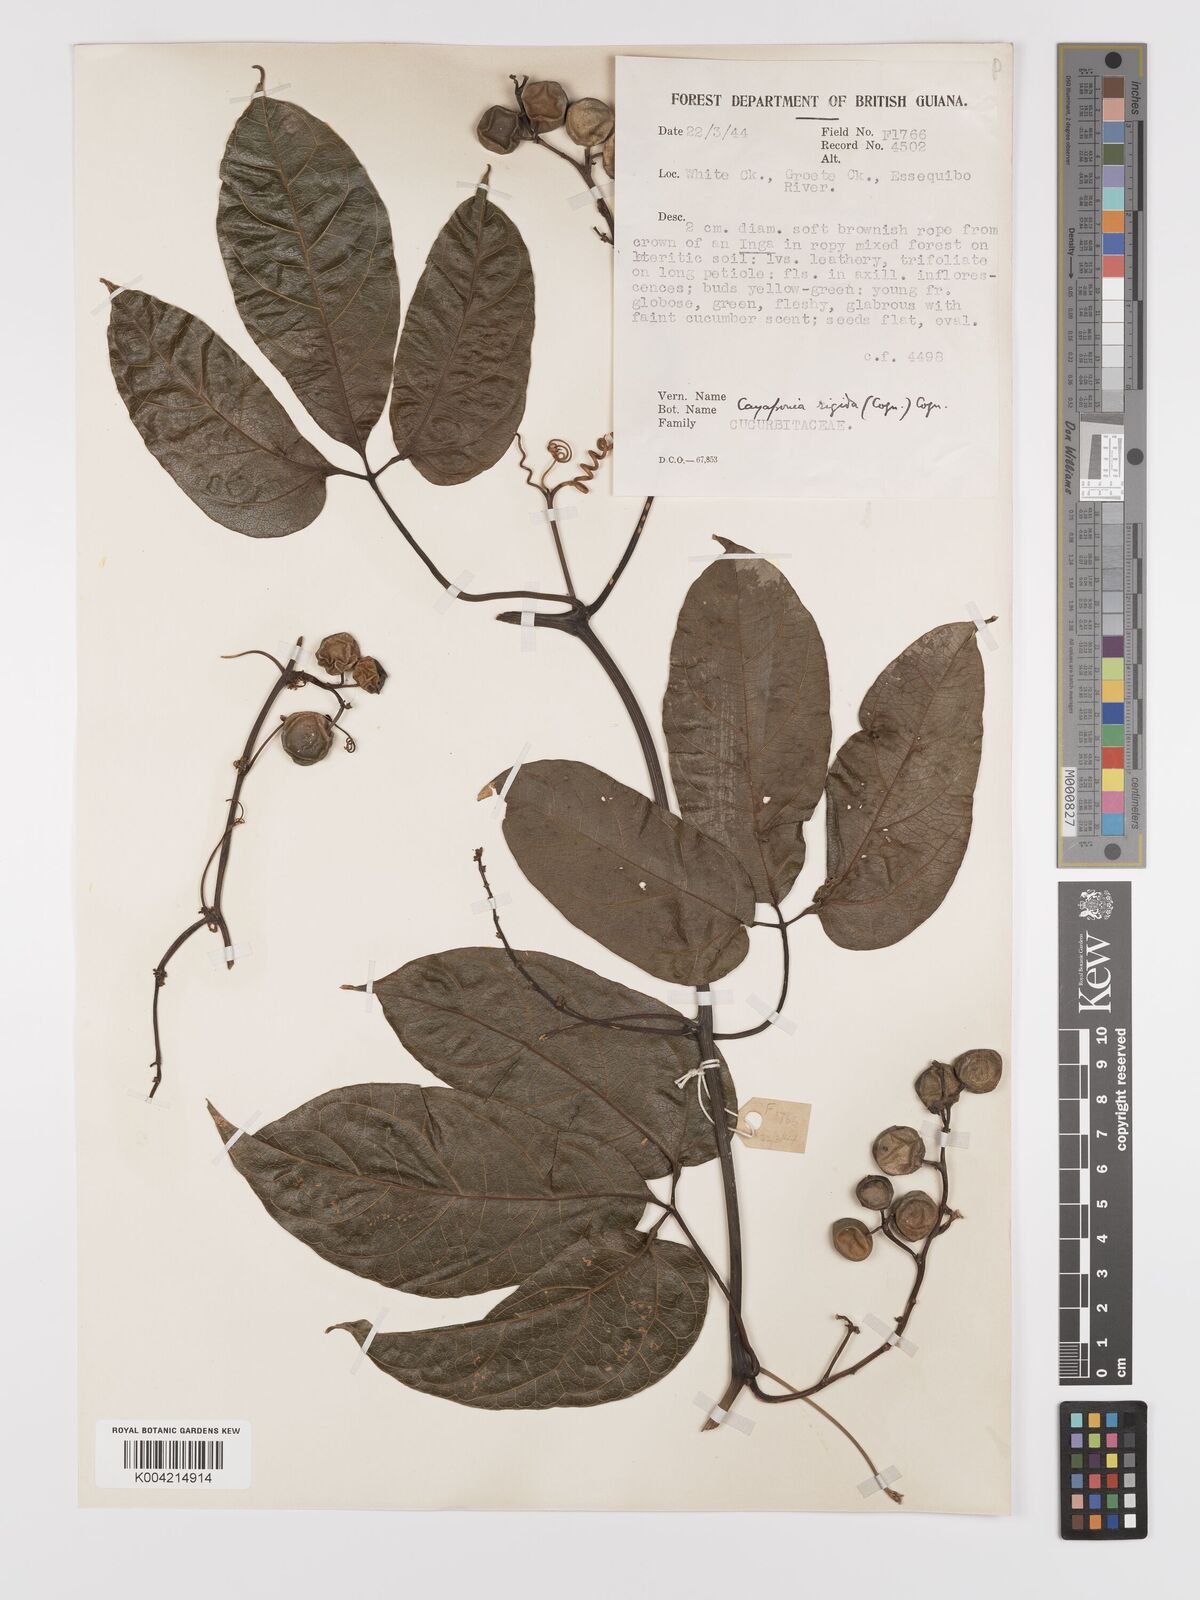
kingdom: Plantae
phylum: Tracheophyta
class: Magnoliopsida
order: Cucurbitales
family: Cucurbitaceae
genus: Cayaponia
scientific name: Cayaponia rigida
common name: Boskomkommer
